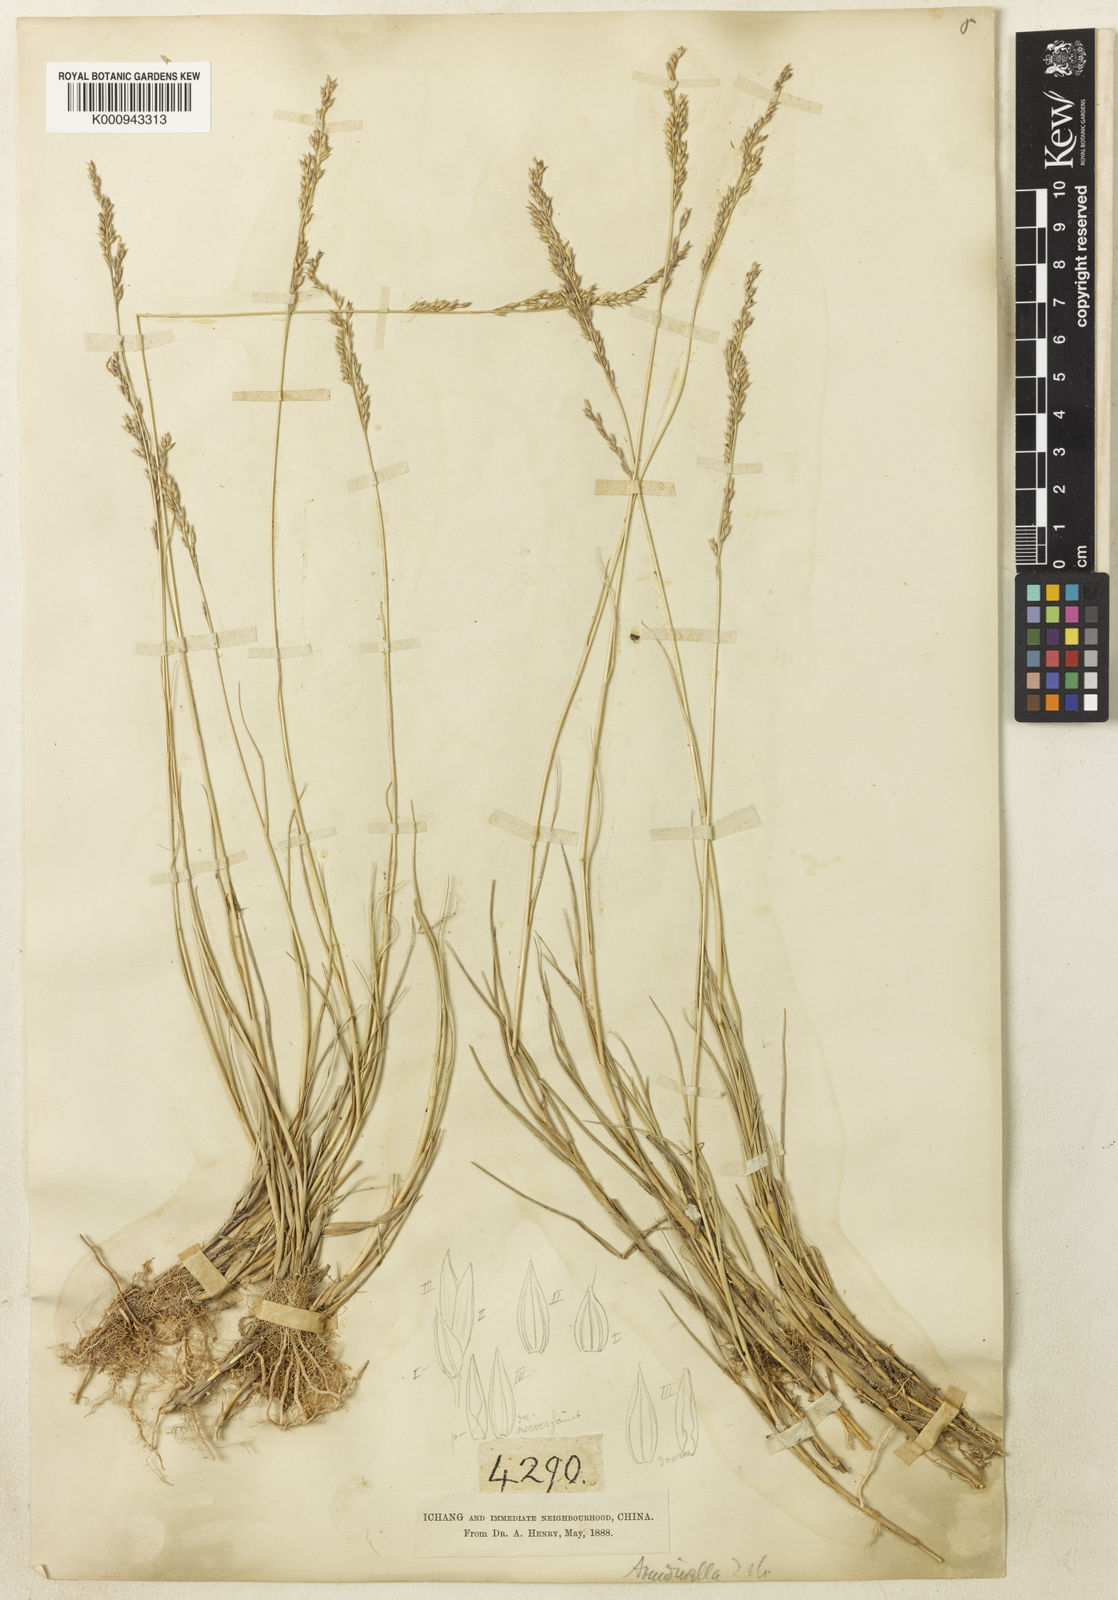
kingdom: Plantae
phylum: Tracheophyta
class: Liliopsida
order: Poales
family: Poaceae
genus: Arundinella
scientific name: Arundinella hirta
